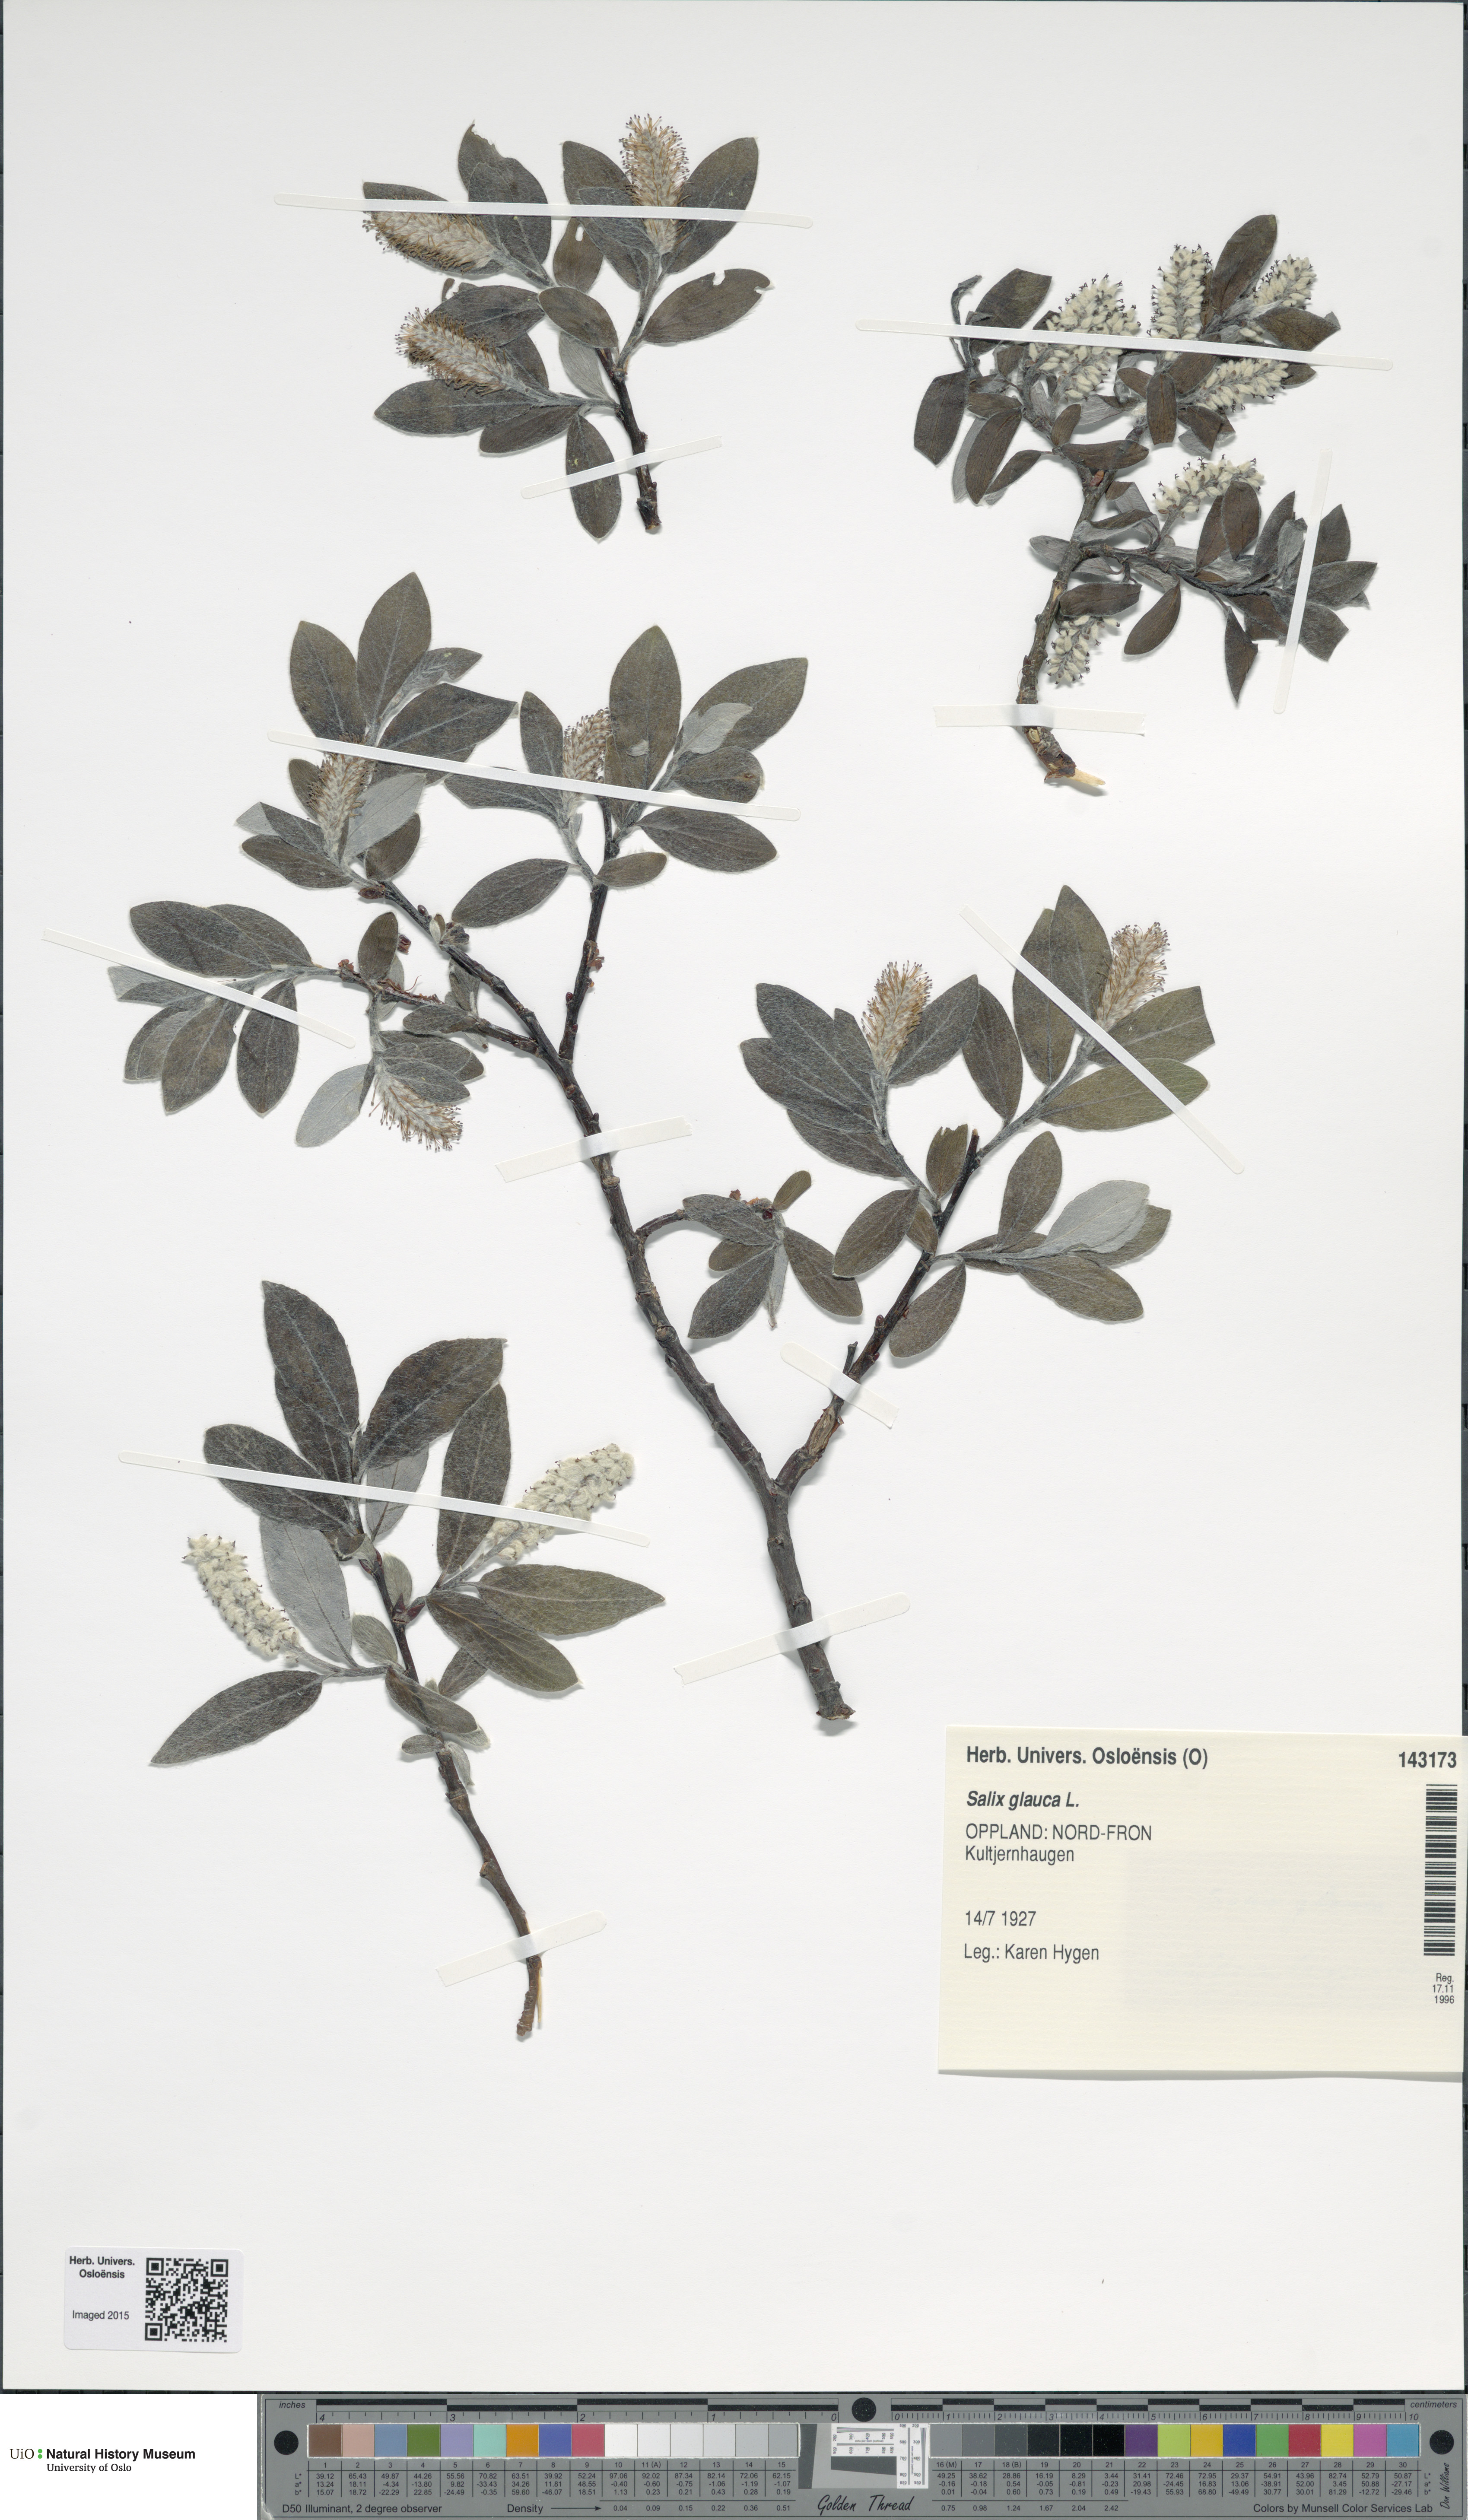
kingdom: Plantae
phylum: Tracheophyta
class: Magnoliopsida
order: Malpighiales
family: Salicaceae
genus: Salix
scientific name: Salix glauca
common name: Glaucous willow
